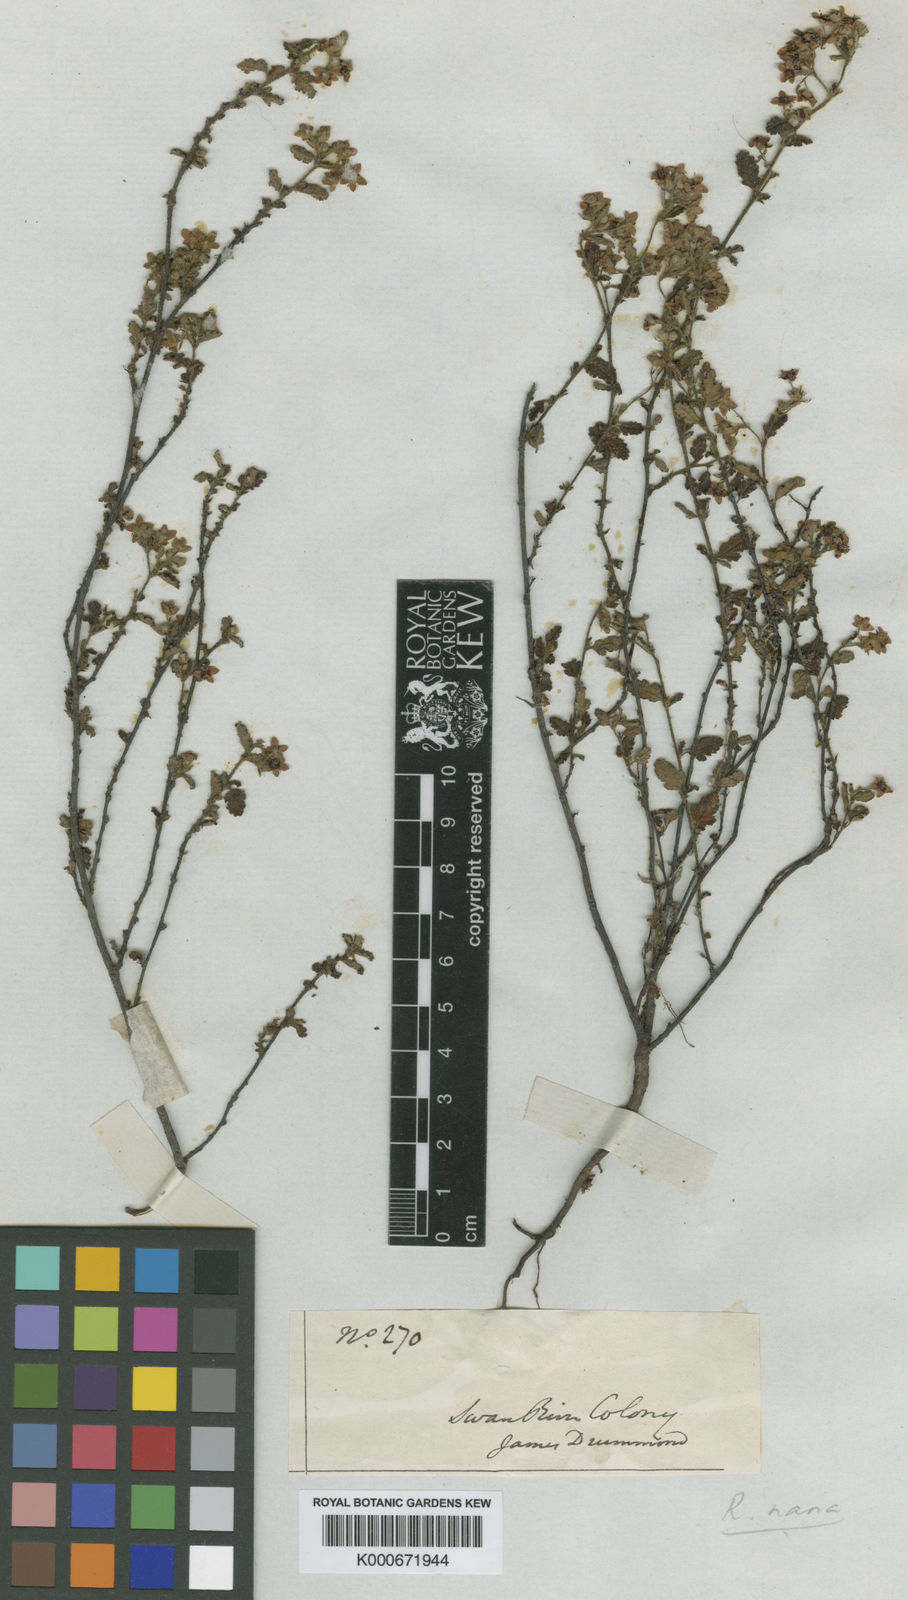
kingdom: Plantae
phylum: Tracheophyta
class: Magnoliopsida
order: Malvales
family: Malvaceae
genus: Commersonia
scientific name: Commersonia parviflora
